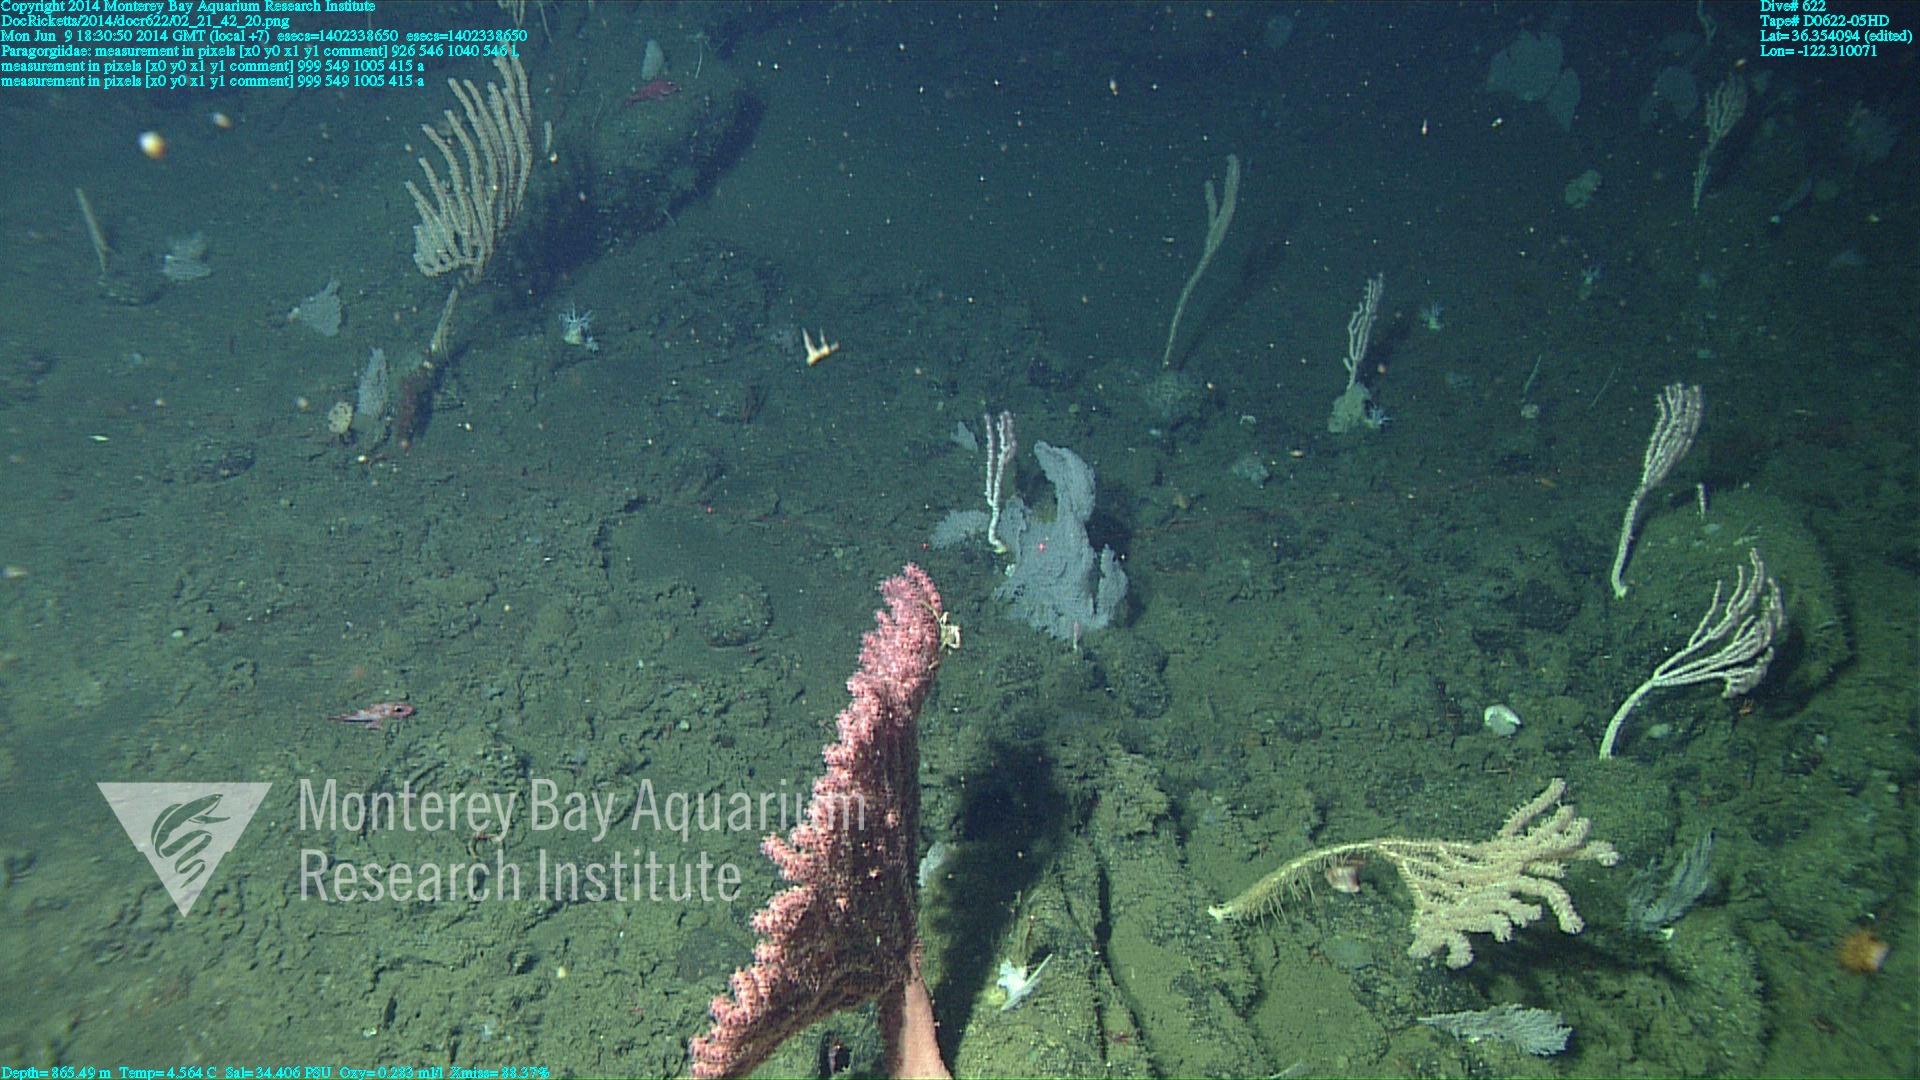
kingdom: Animalia
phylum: Cnidaria
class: Anthozoa
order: Scleralcyonacea
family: Coralliidae
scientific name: Coralliidae
